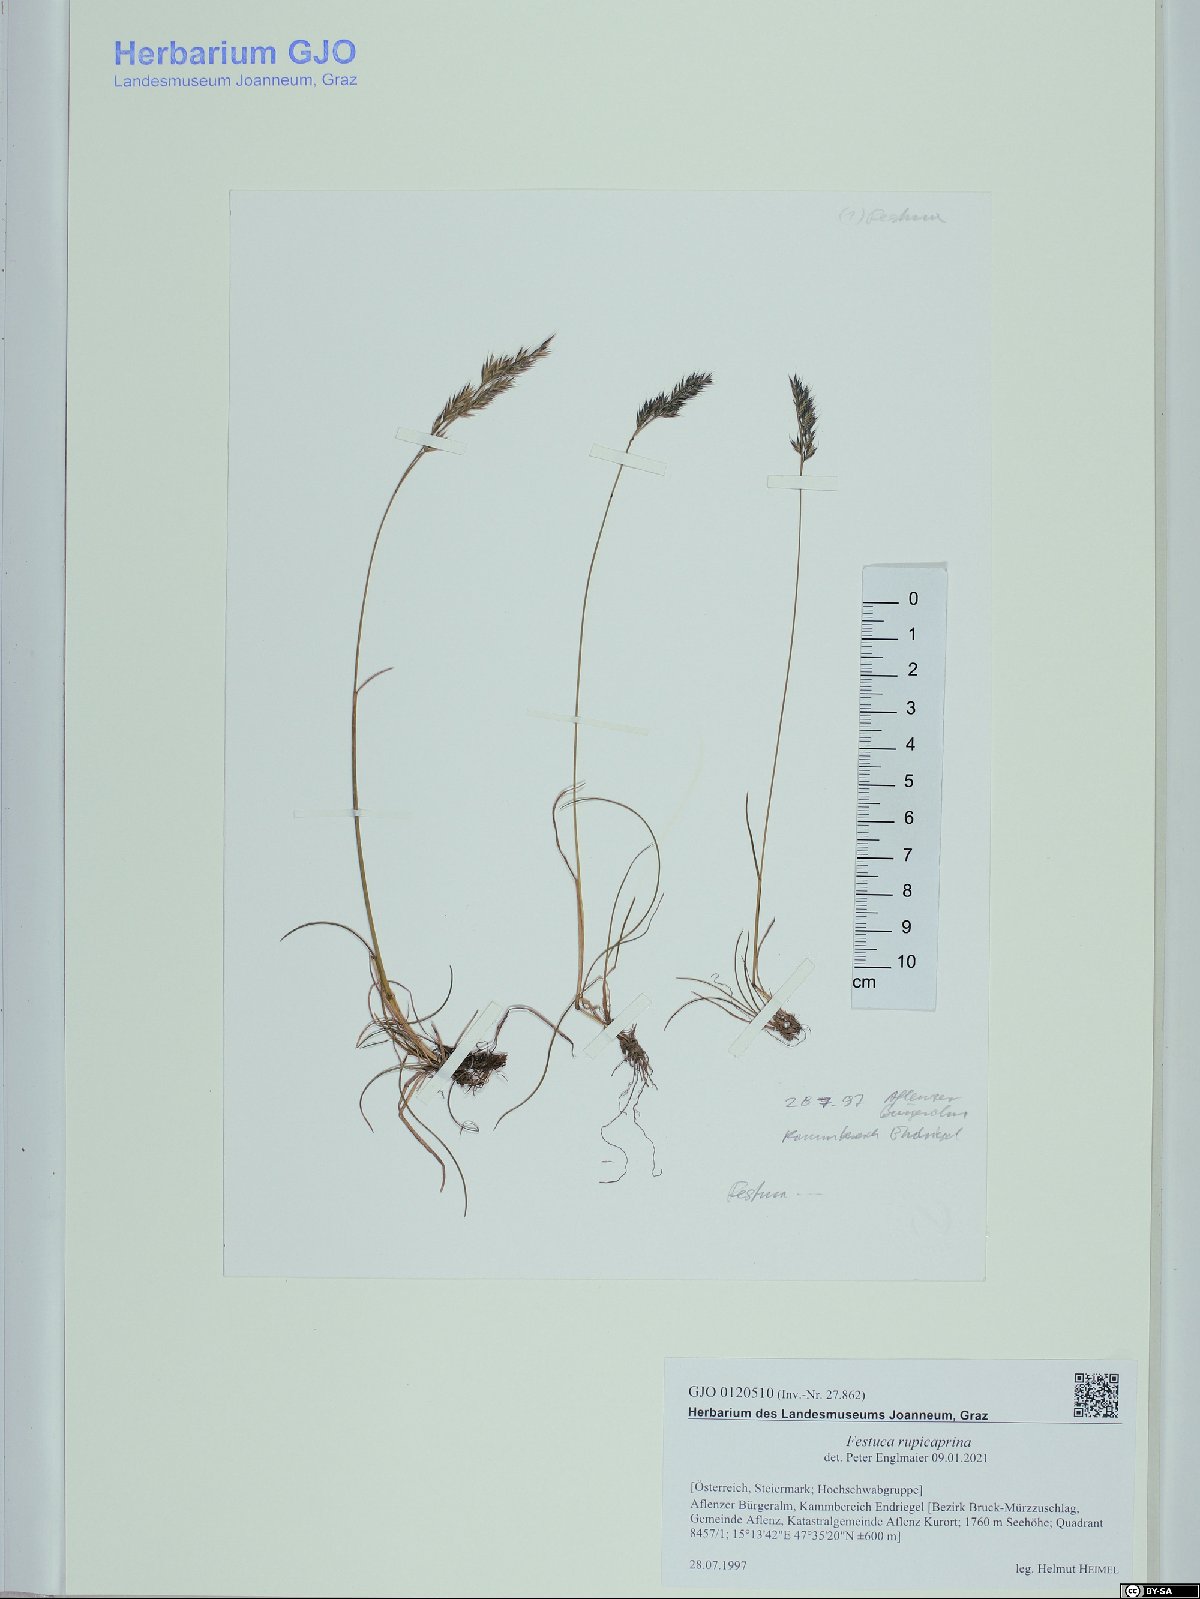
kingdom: Plantae
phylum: Tracheophyta
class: Liliopsida
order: Poales
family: Poaceae
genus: Festuca
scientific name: Festuca rupicaprina
